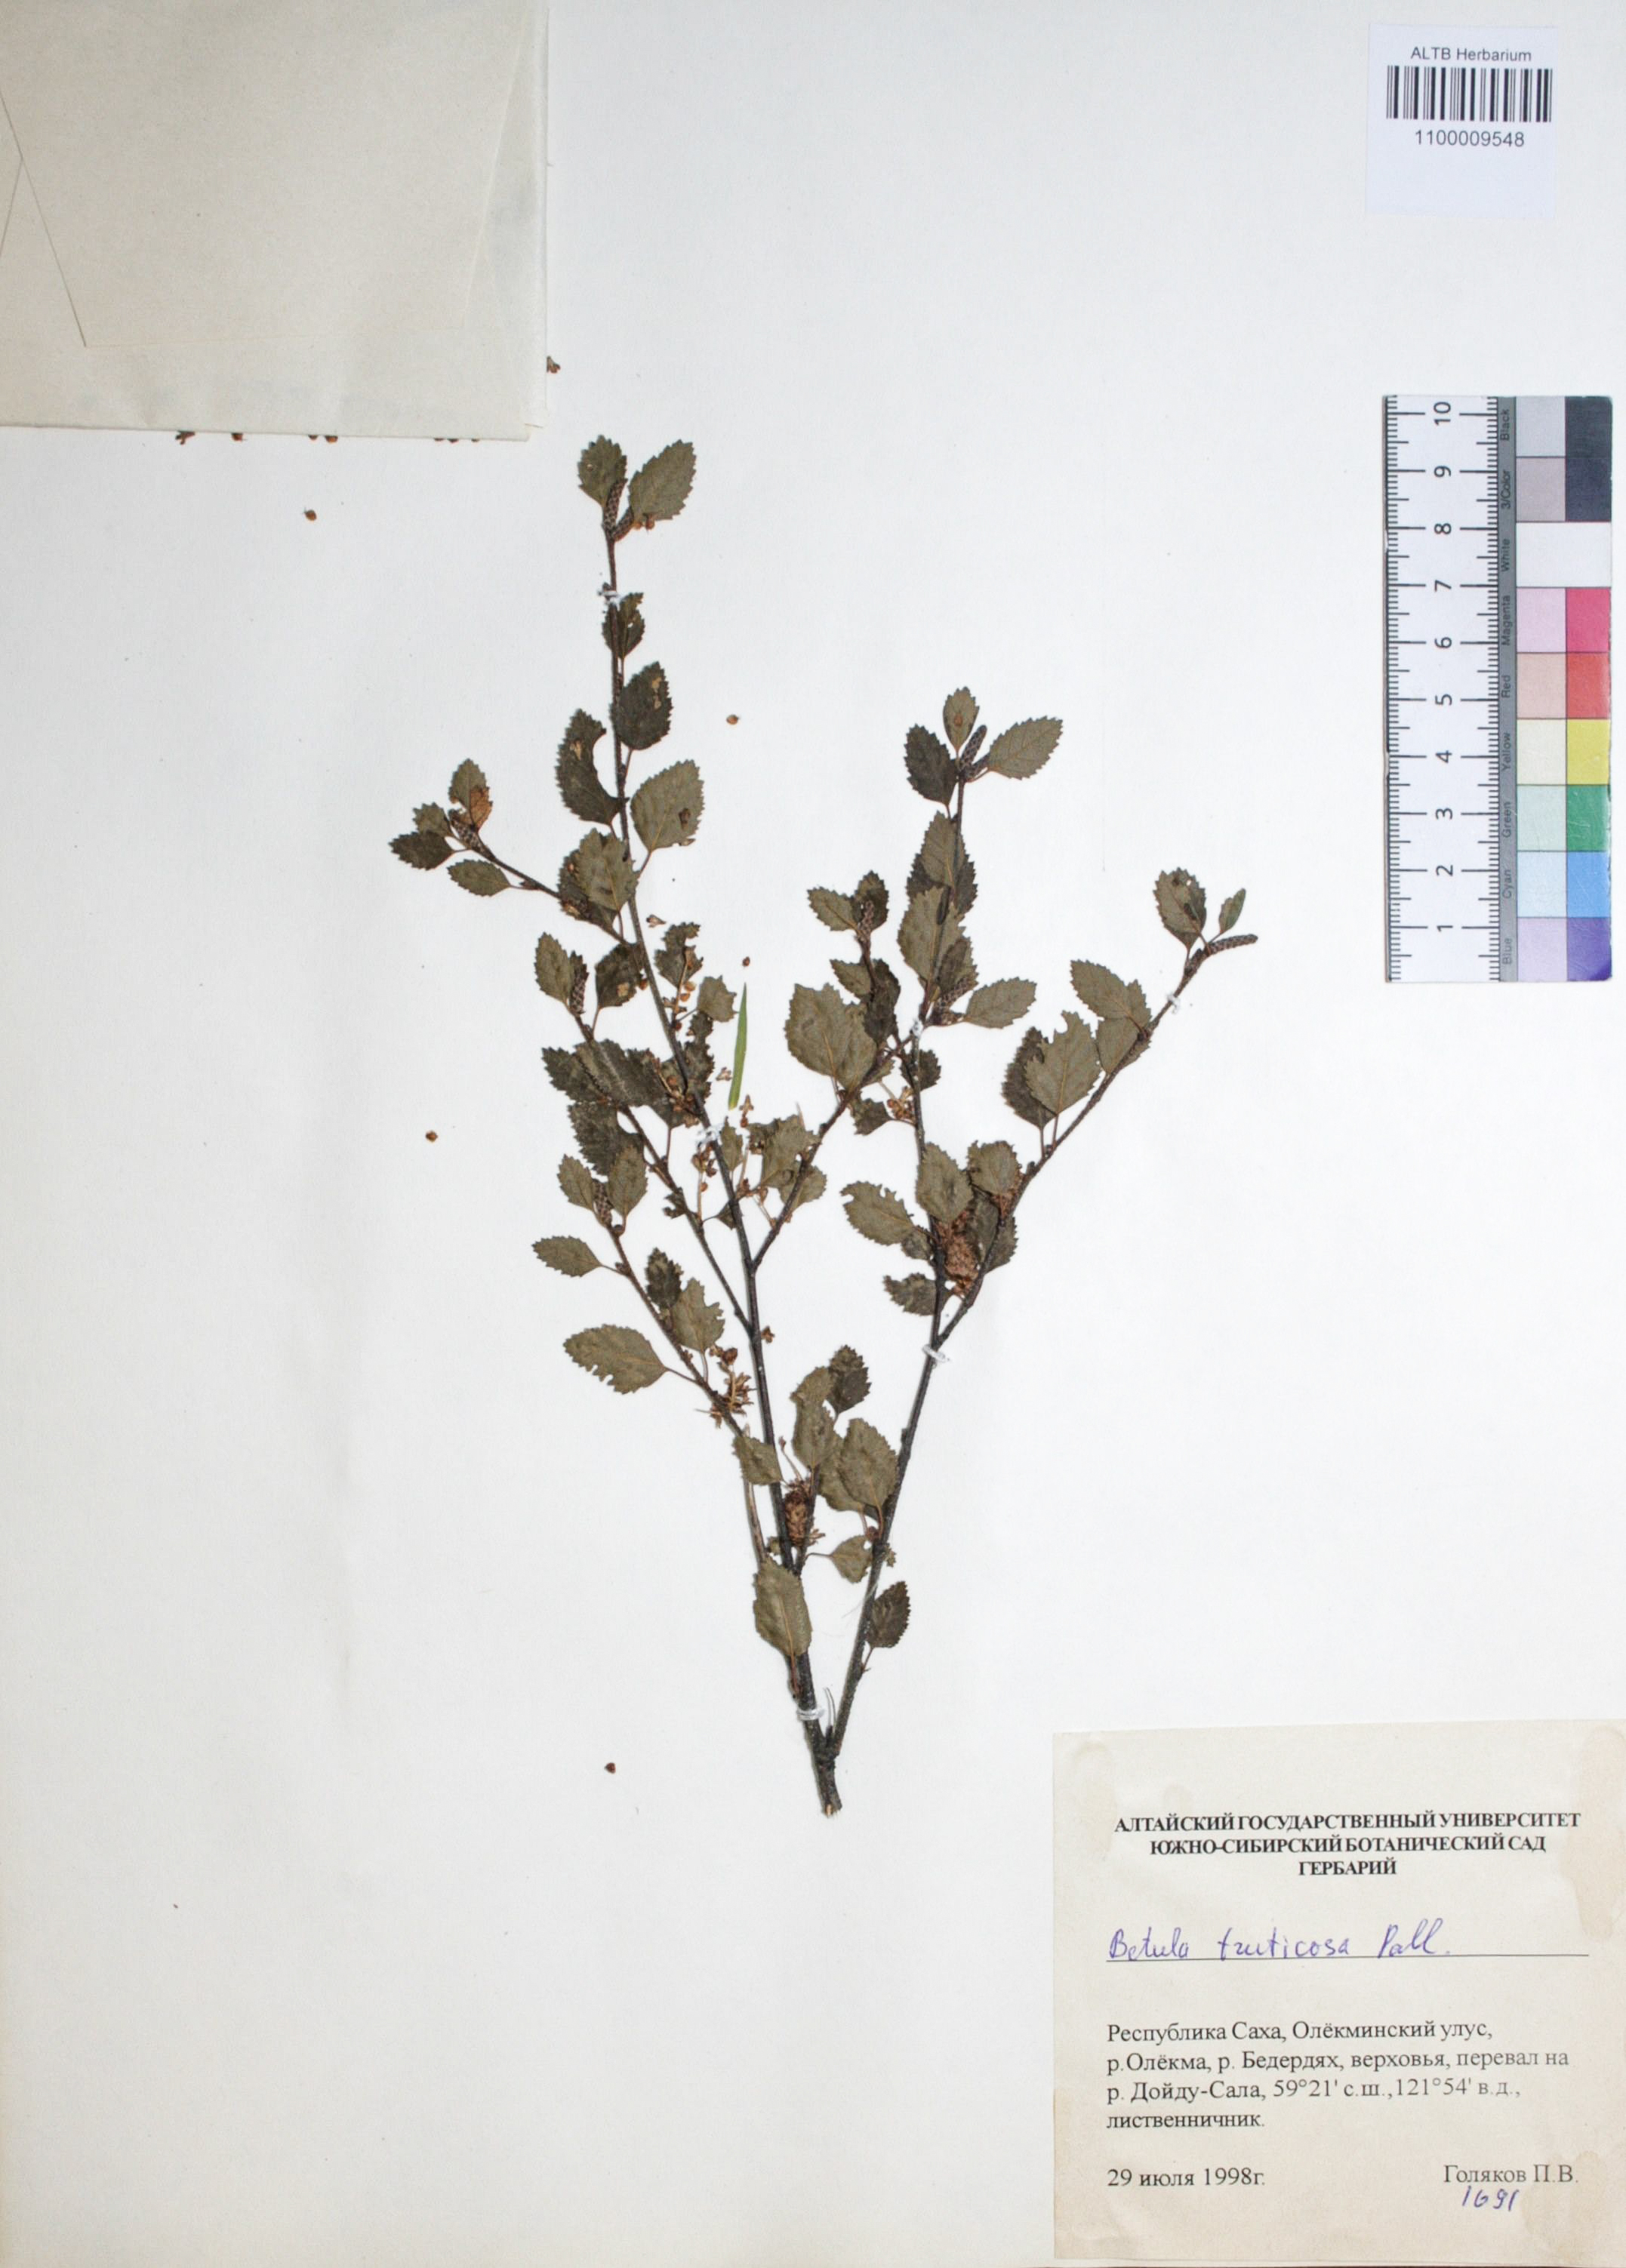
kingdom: Plantae
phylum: Tracheophyta
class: Magnoliopsida
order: Fagales
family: Betulaceae
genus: Betula
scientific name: Betula fruticosa
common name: Japanese bog birch
